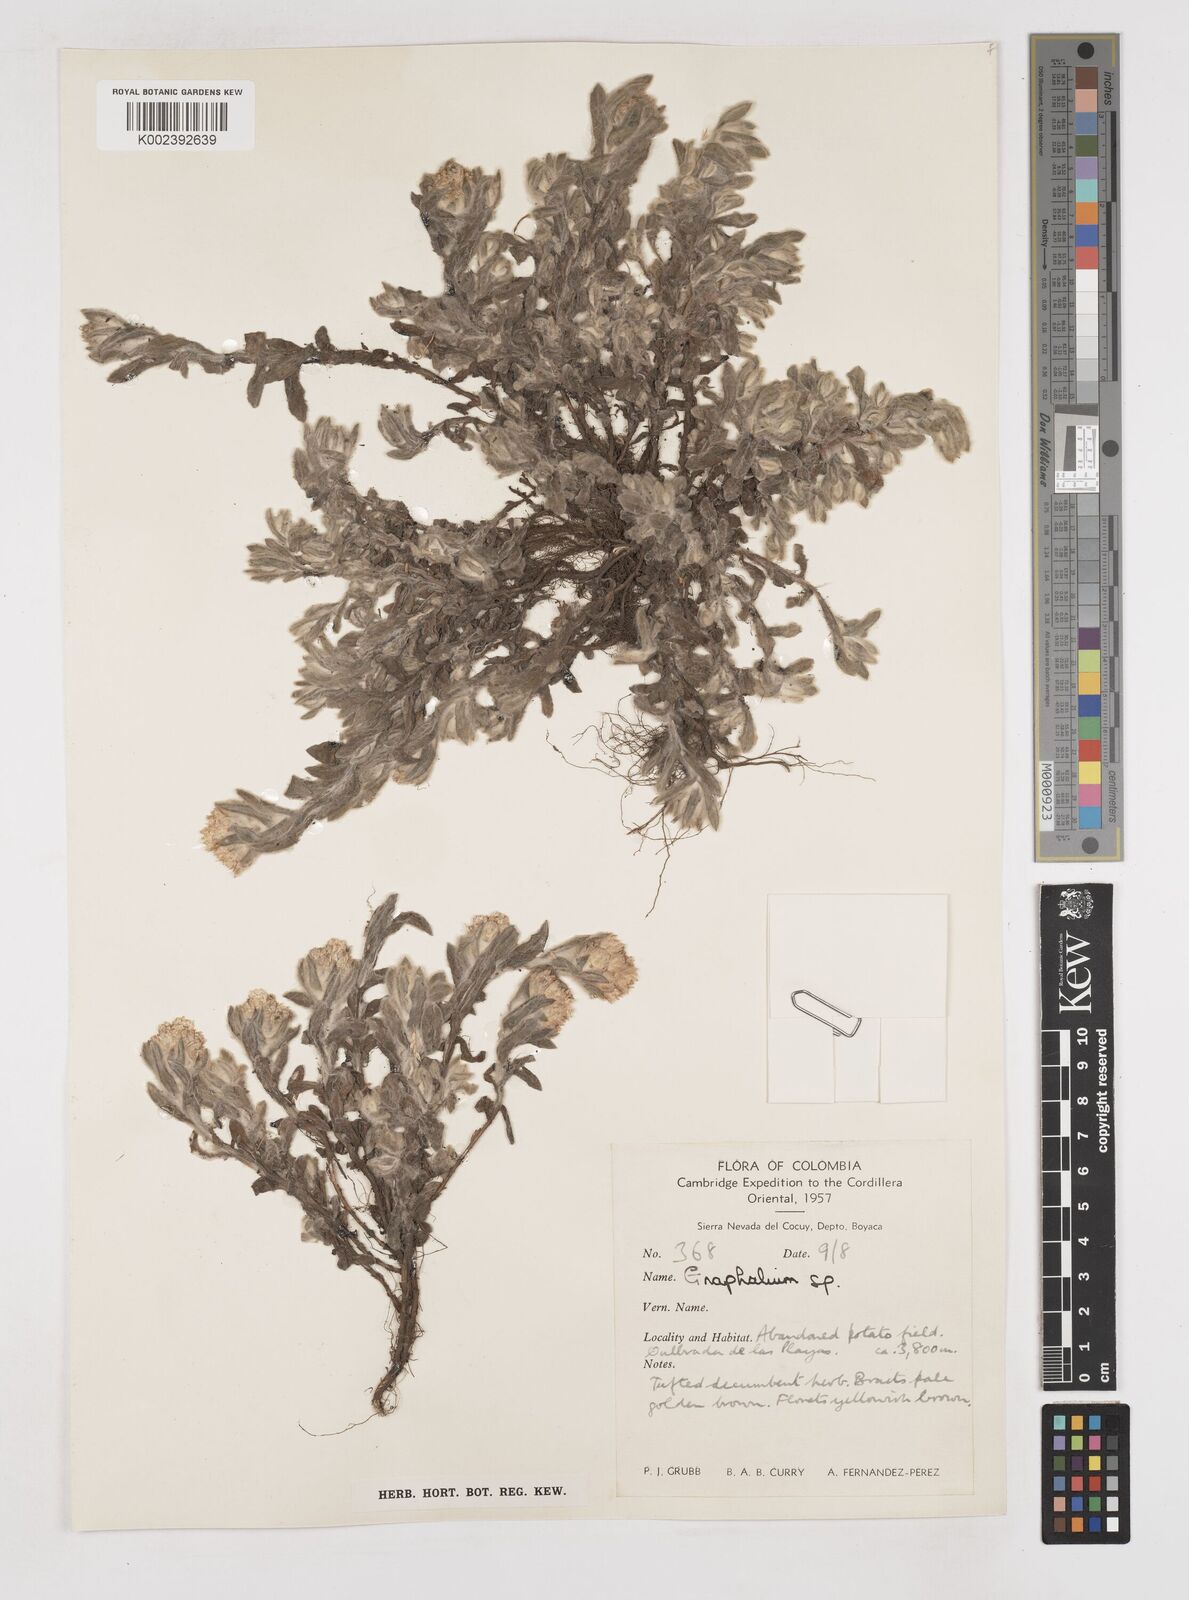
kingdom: Plantae
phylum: Tracheophyta
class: Magnoliopsida
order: Asterales
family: Asteraceae
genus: Gnaphalium
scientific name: Gnaphalium
